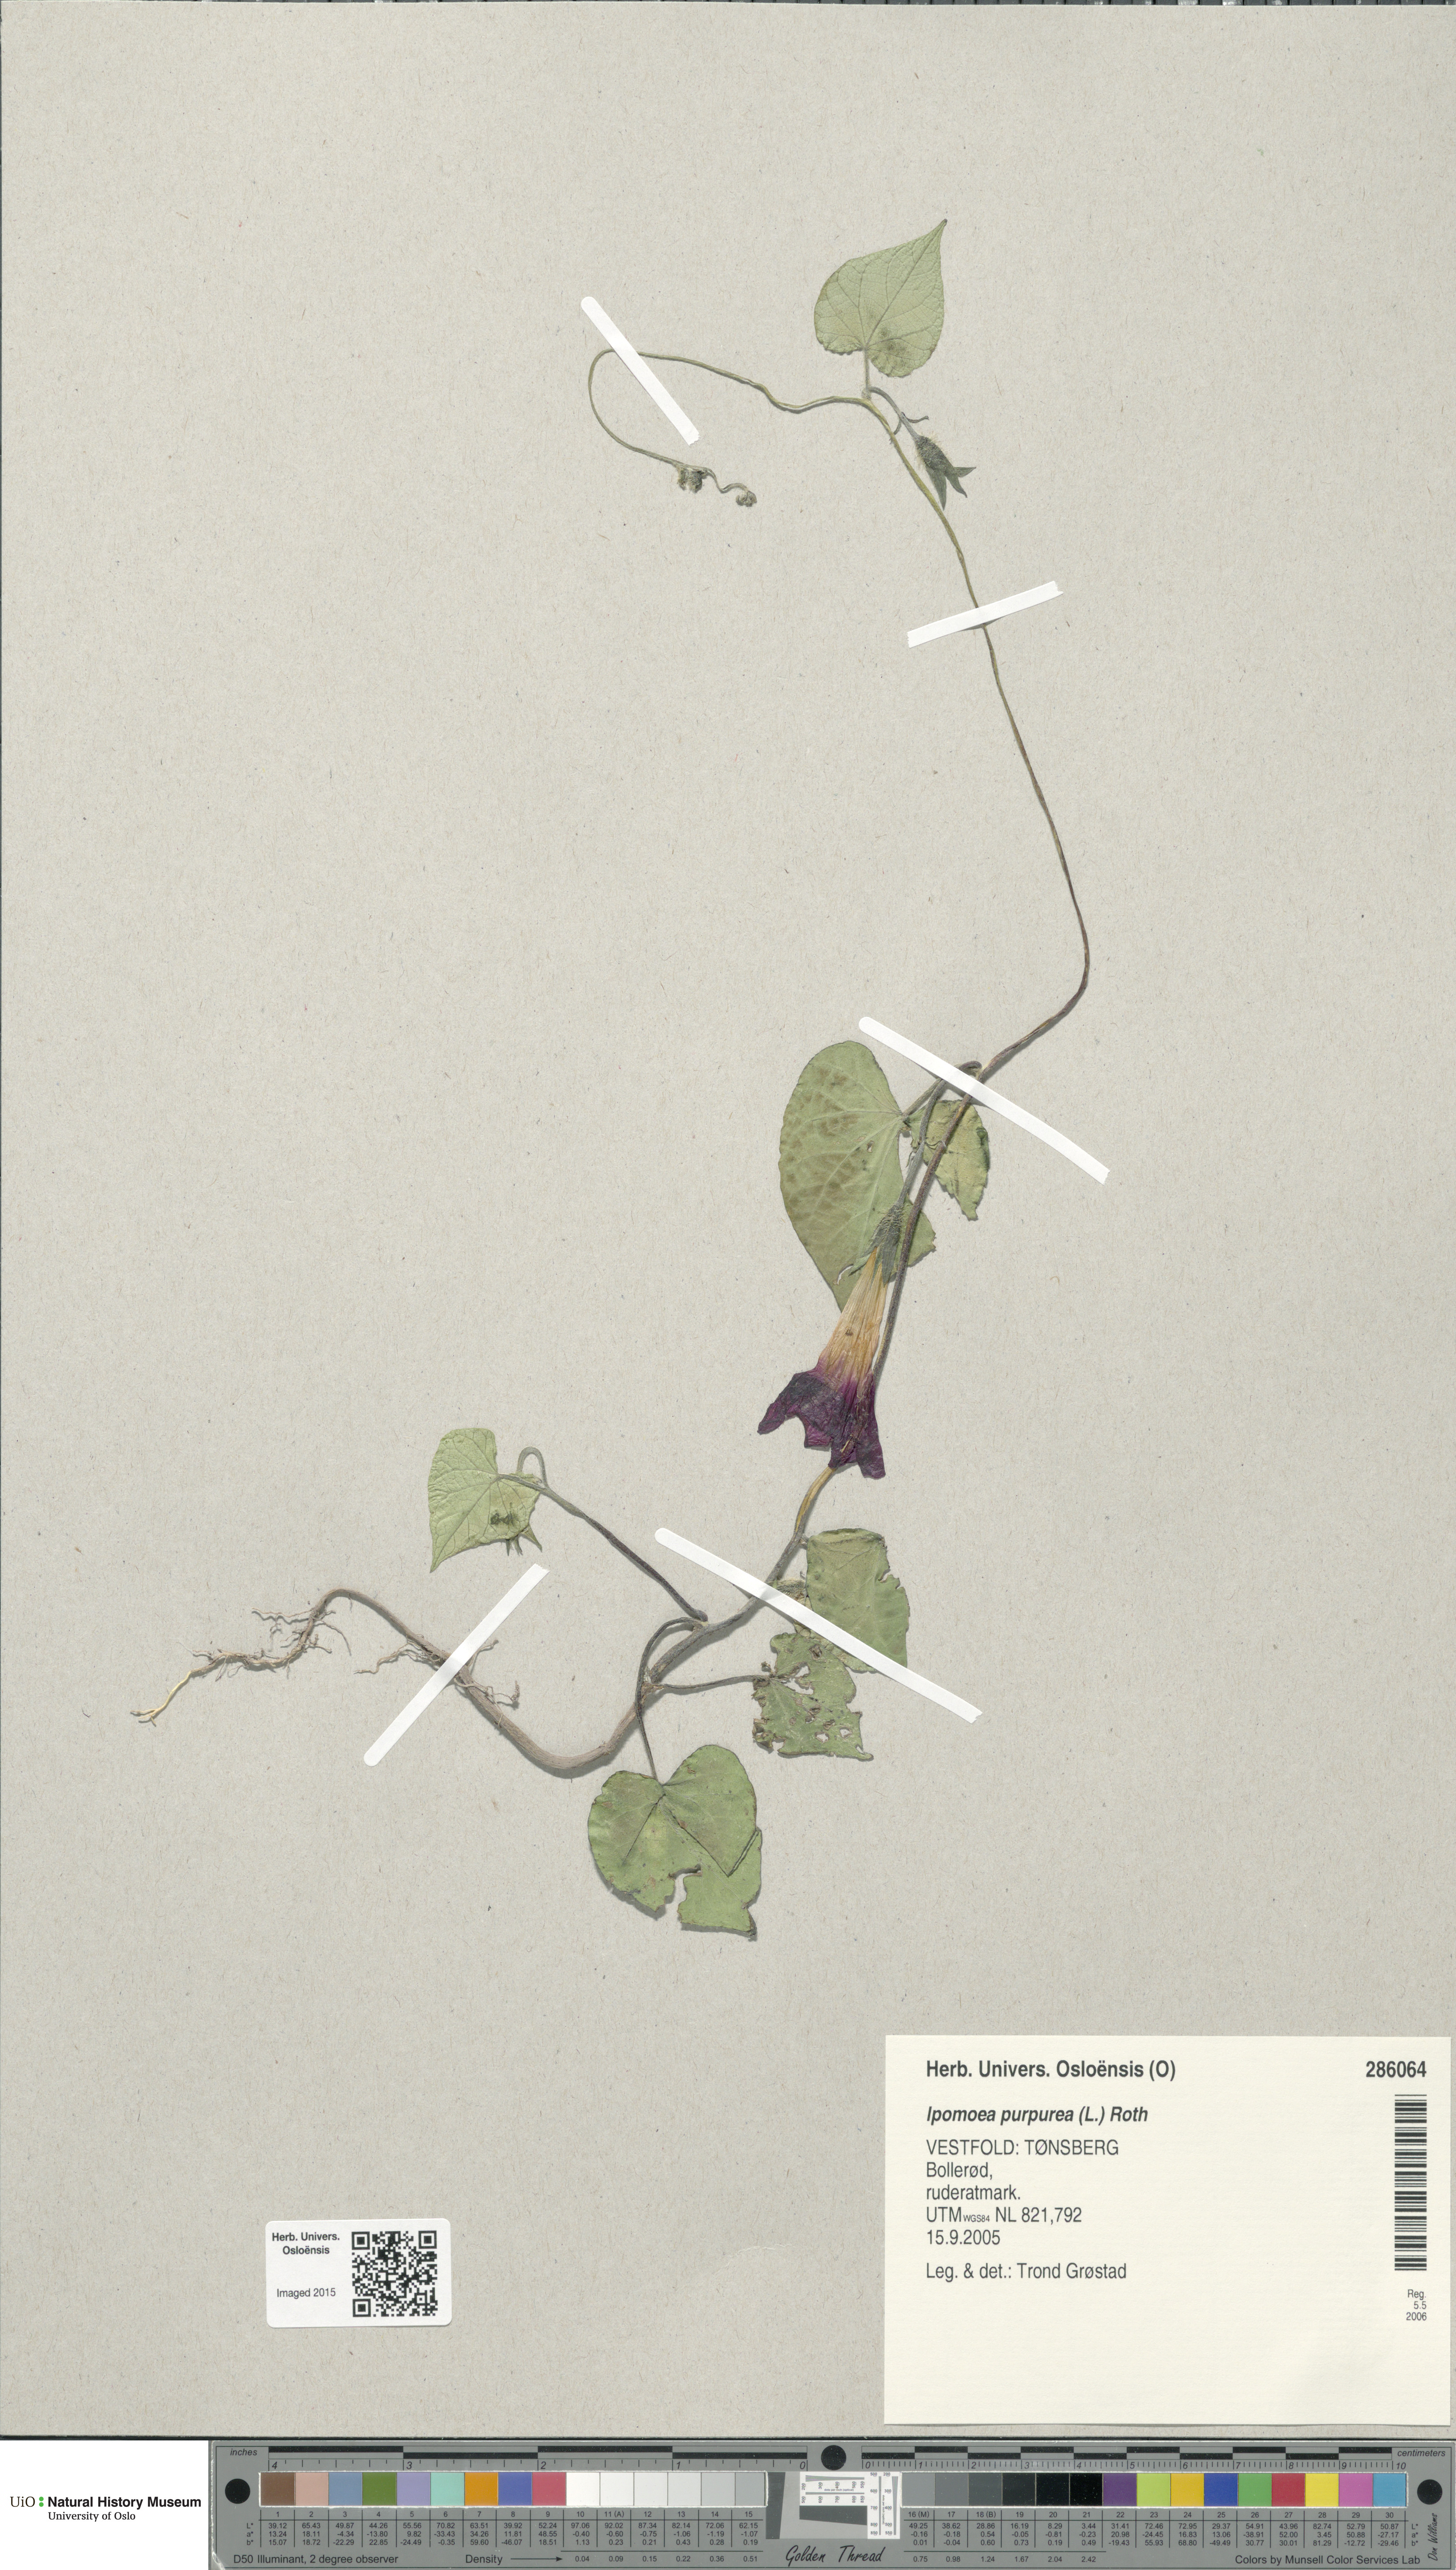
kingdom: Plantae
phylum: Tracheophyta
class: Magnoliopsida
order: Solanales
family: Convolvulaceae
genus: Ipomoea
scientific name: Ipomoea purpurea
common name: Common morning-glory
